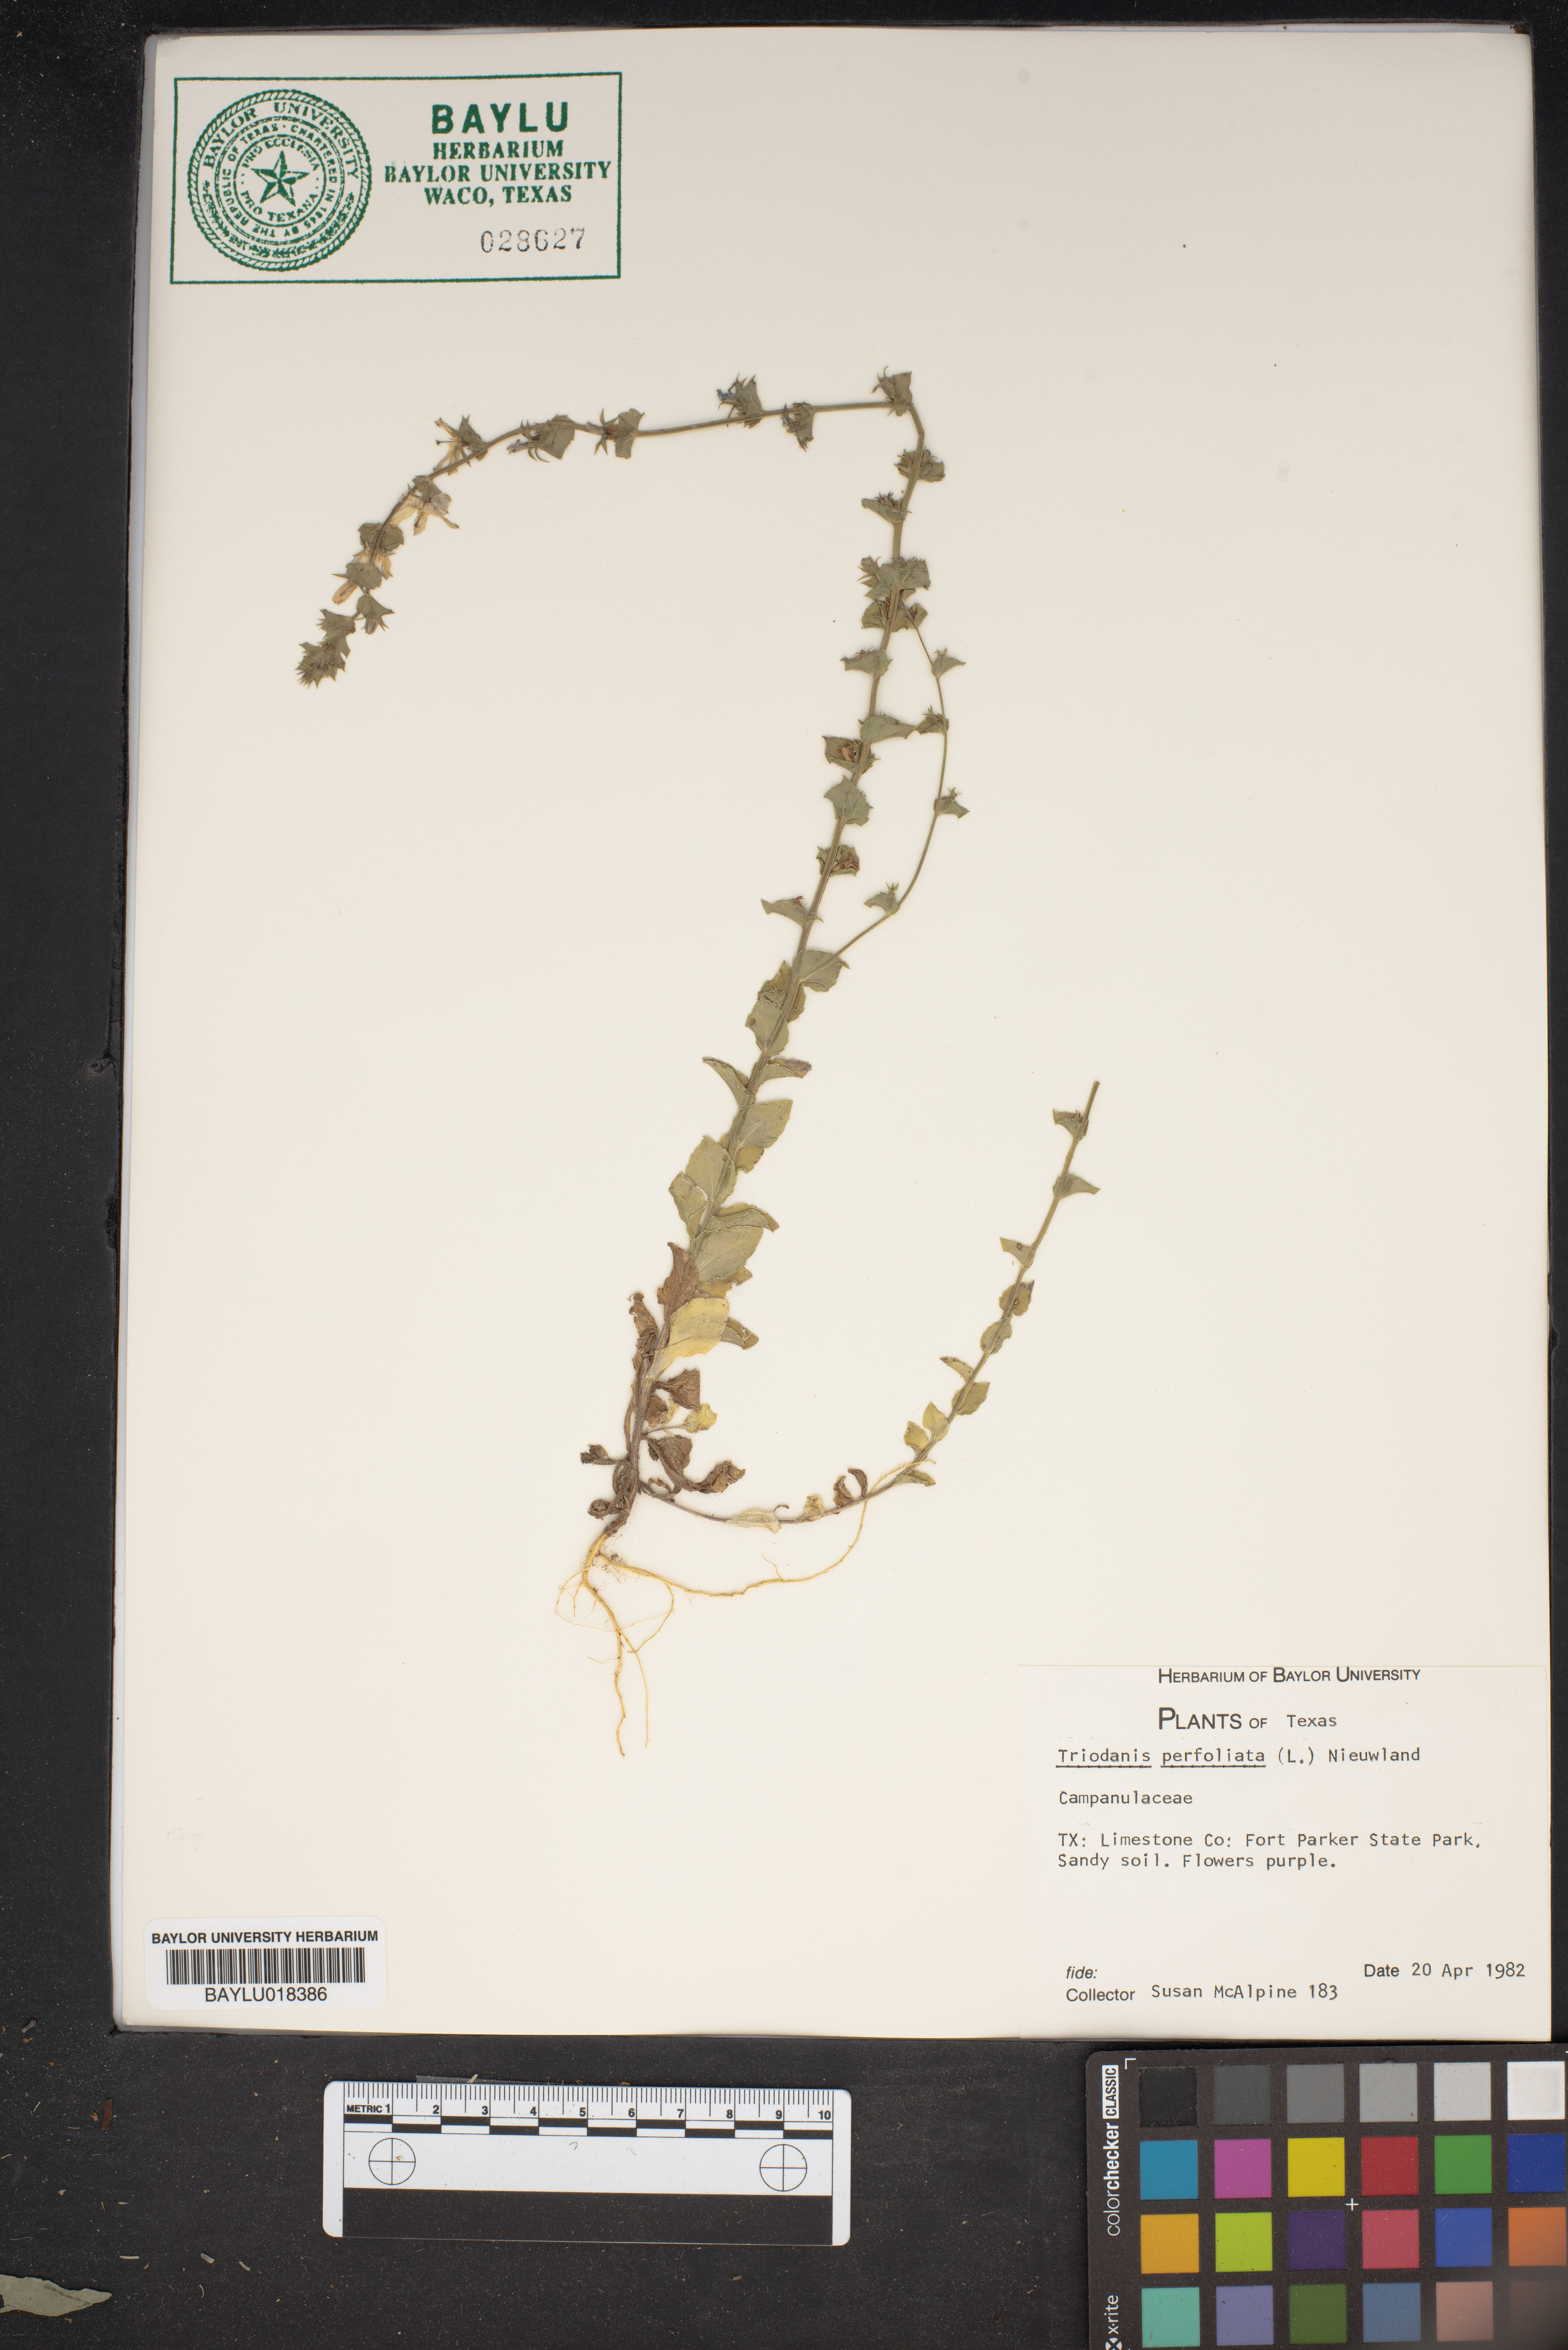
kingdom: Plantae
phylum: Tracheophyta
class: Magnoliopsida
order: Asterales
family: Campanulaceae
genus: Triodanis
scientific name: Triodanis perfoliata
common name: Clasping venus' looking-glass
